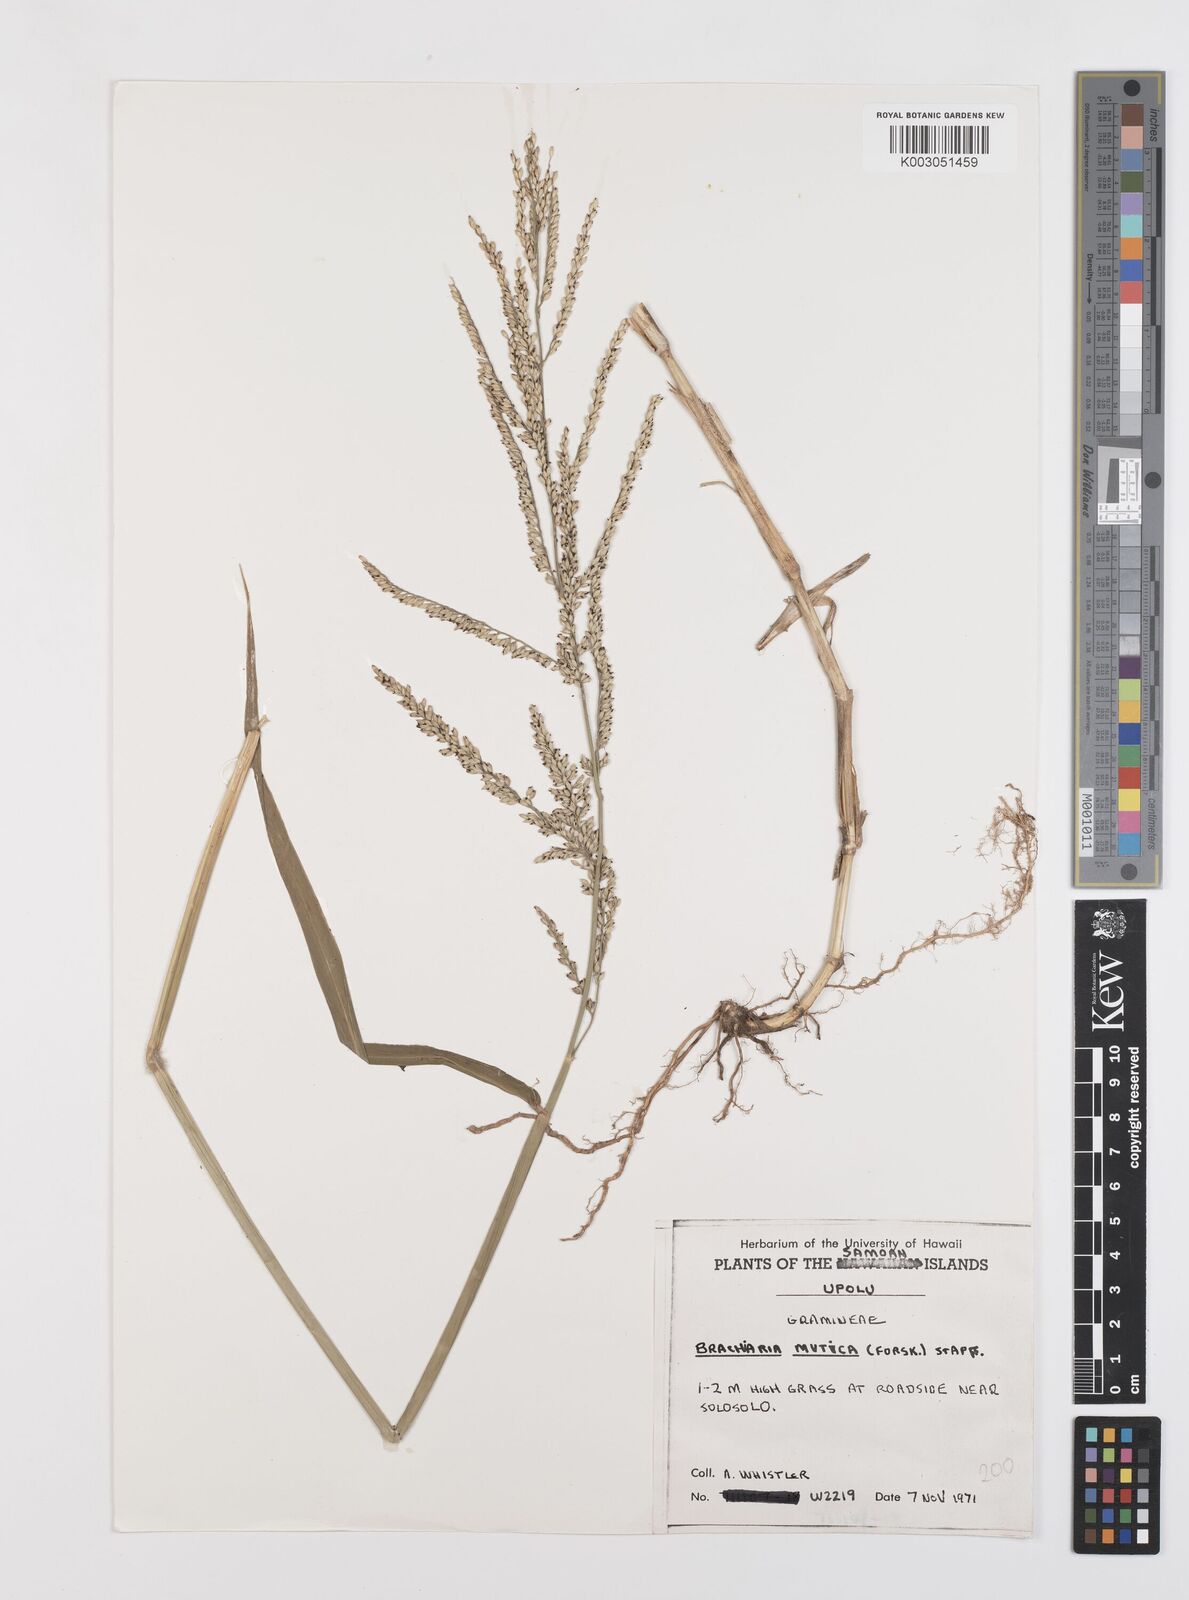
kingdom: Plantae
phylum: Tracheophyta
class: Liliopsida
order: Poales
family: Poaceae
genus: Urochloa
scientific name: Urochloa mutica
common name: Para grass
